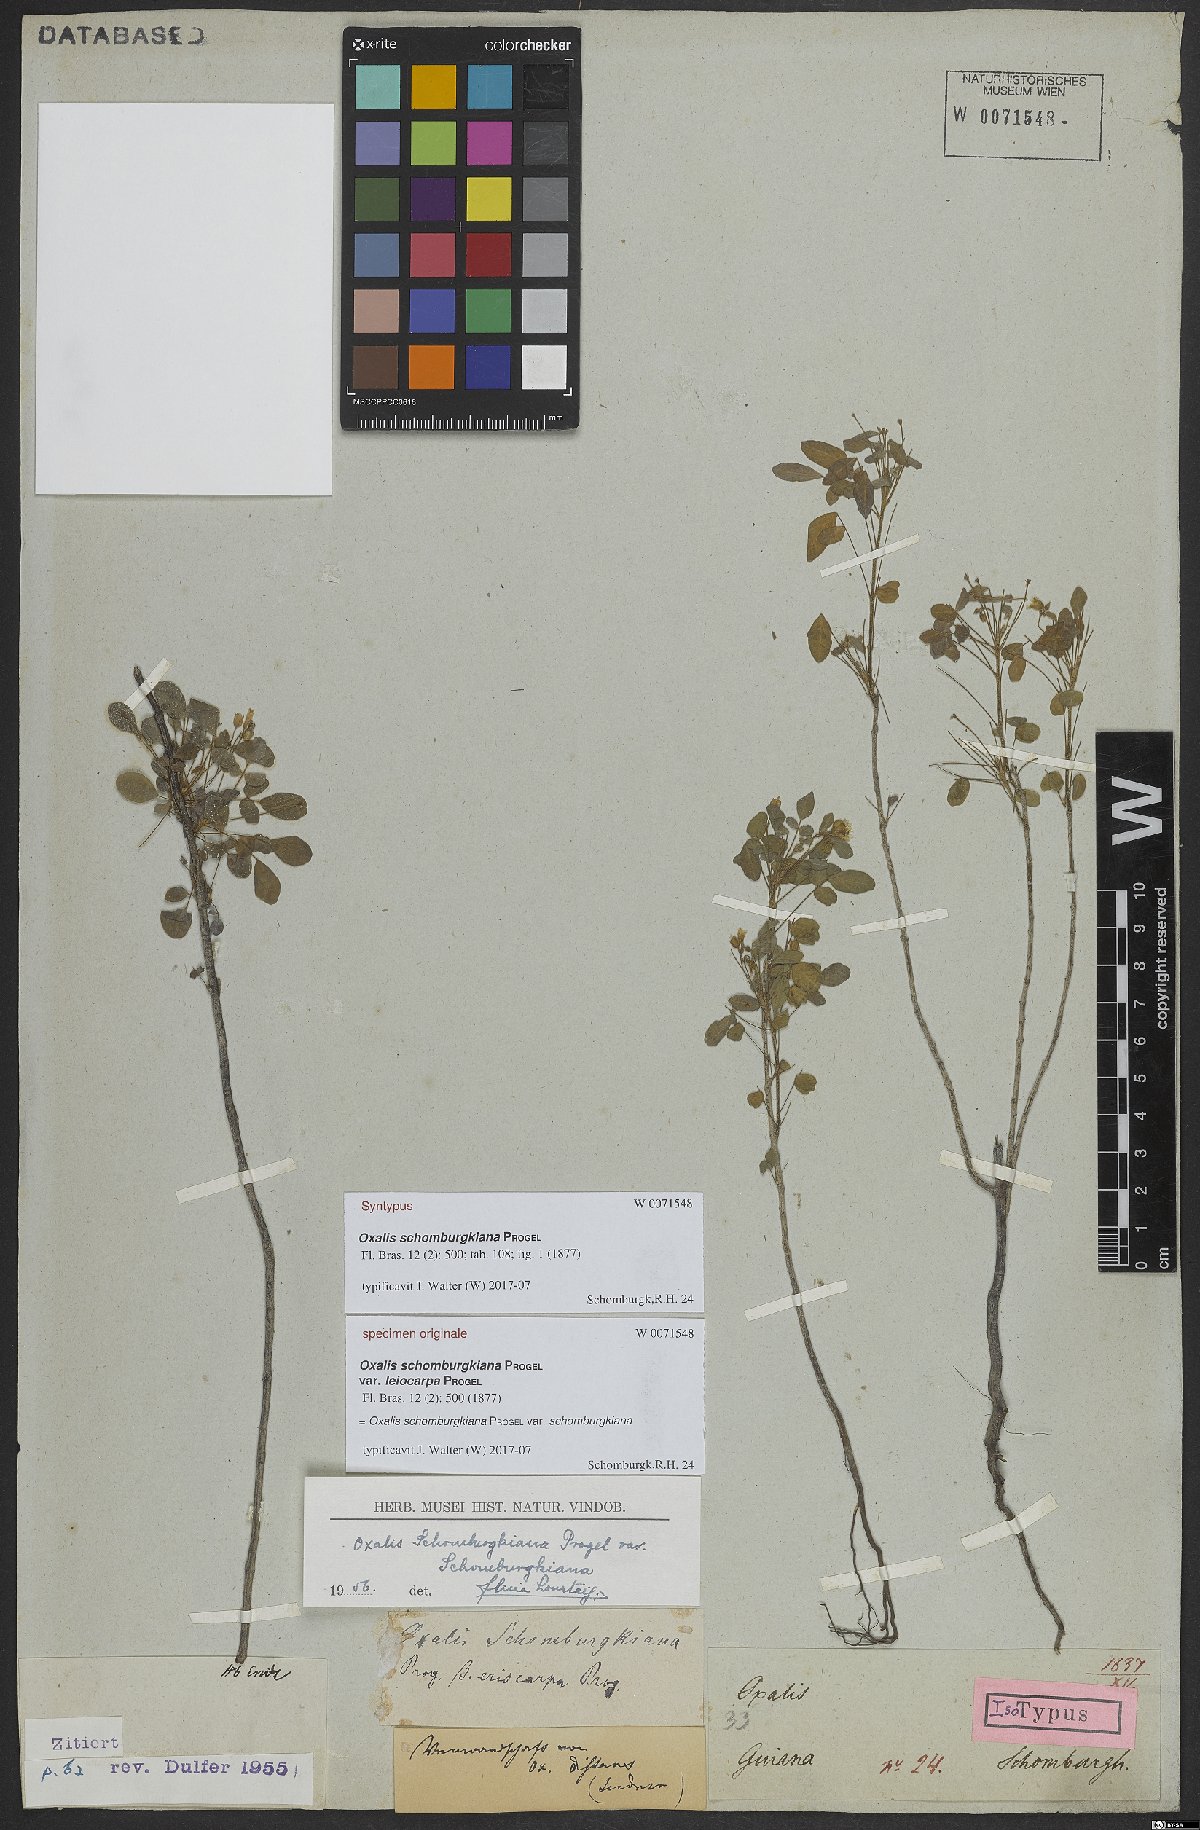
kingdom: Plantae
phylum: Tracheophyta
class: Magnoliopsida
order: Oxalidales
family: Oxalidaceae
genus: Oxalis
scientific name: Oxalis frutescens
